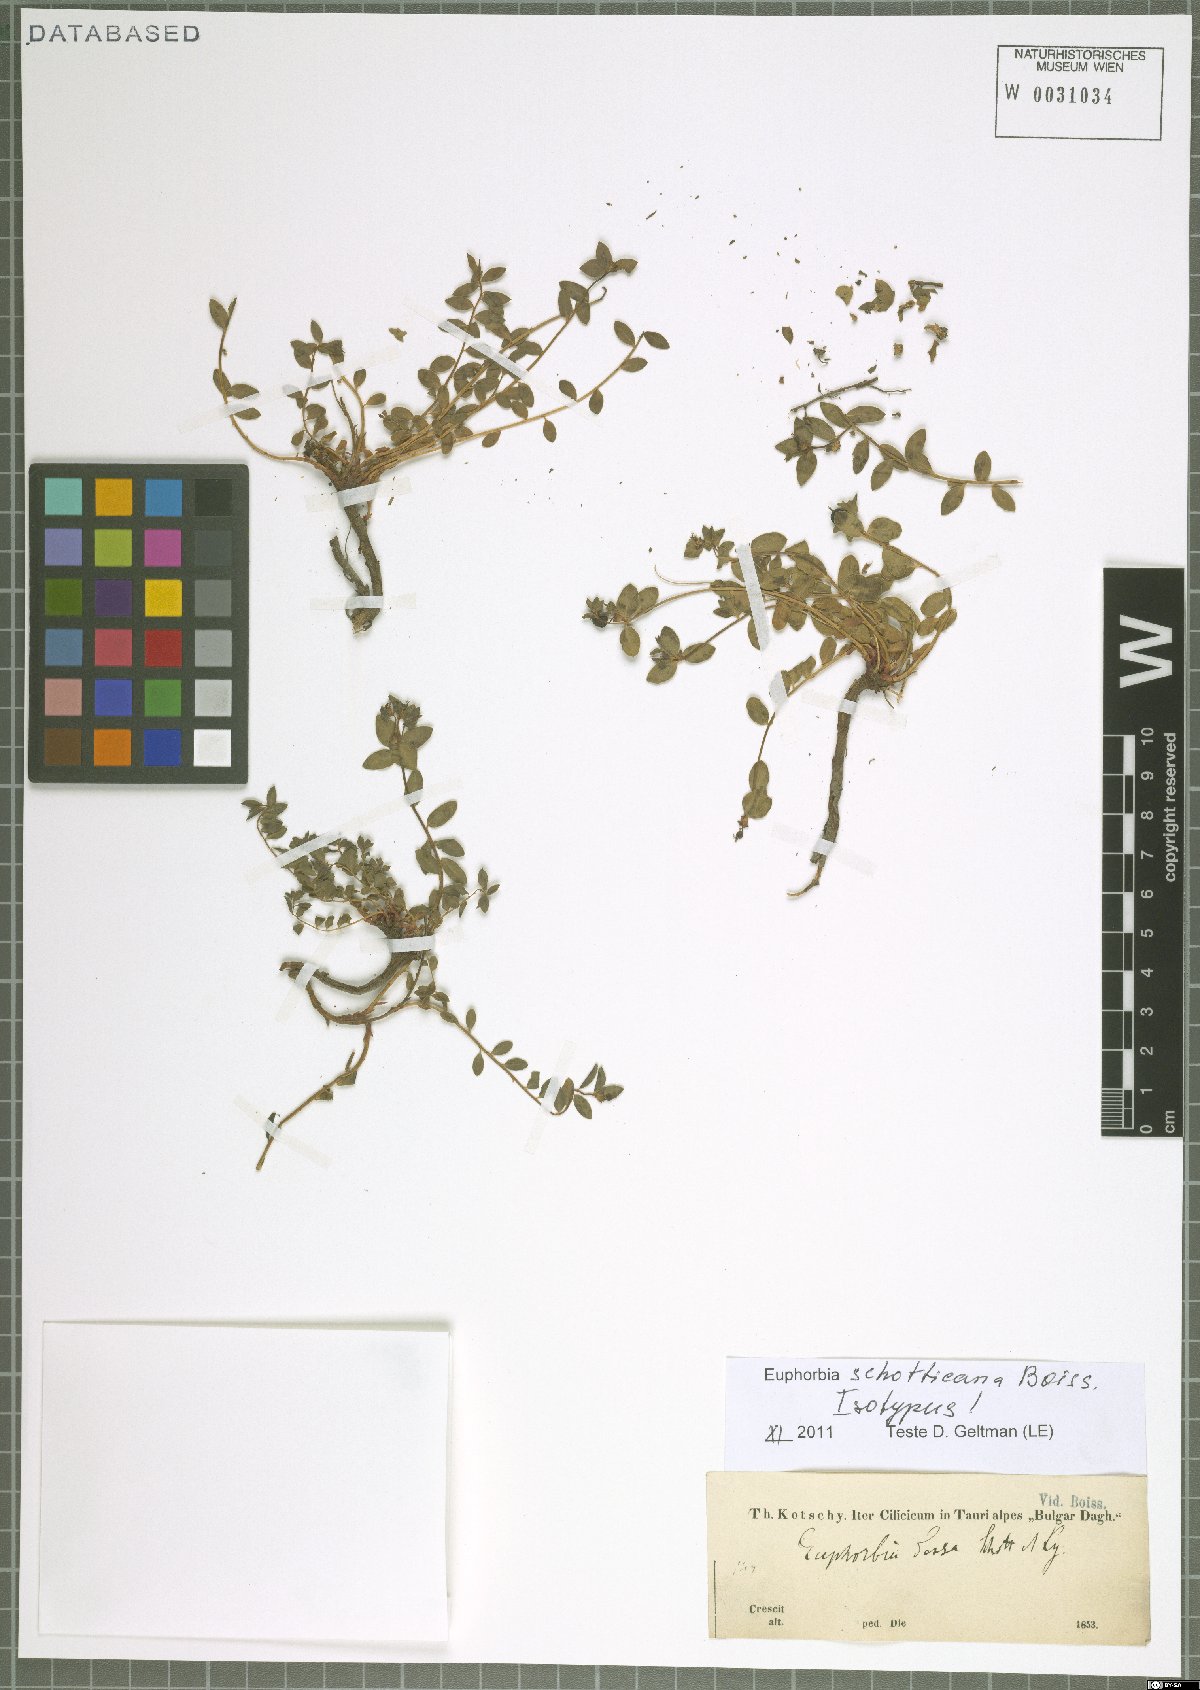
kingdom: Plantae
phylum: Tracheophyta
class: Magnoliopsida
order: Malpighiales
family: Euphorbiaceae
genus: Euphorbia
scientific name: Euphorbia schottiana
